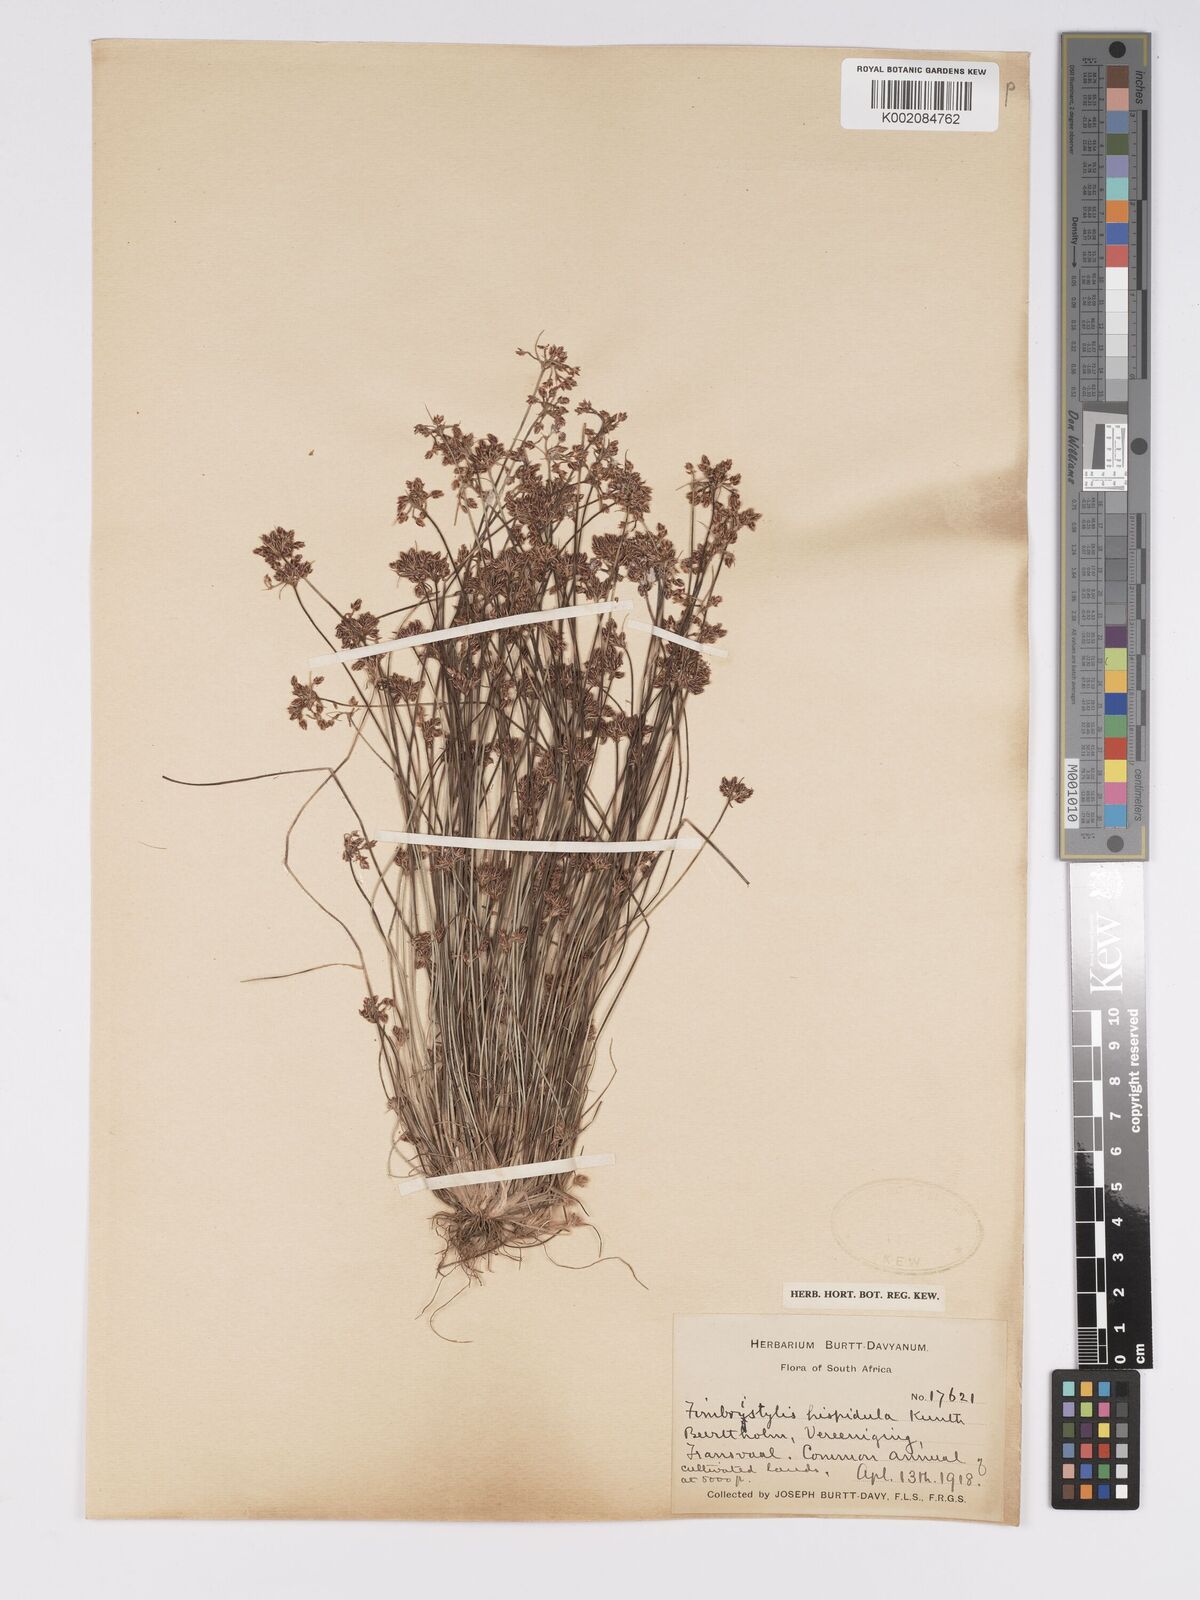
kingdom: Plantae
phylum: Tracheophyta
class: Liliopsida
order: Poales
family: Cyperaceae
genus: Bulbostylis
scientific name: Bulbostylis
